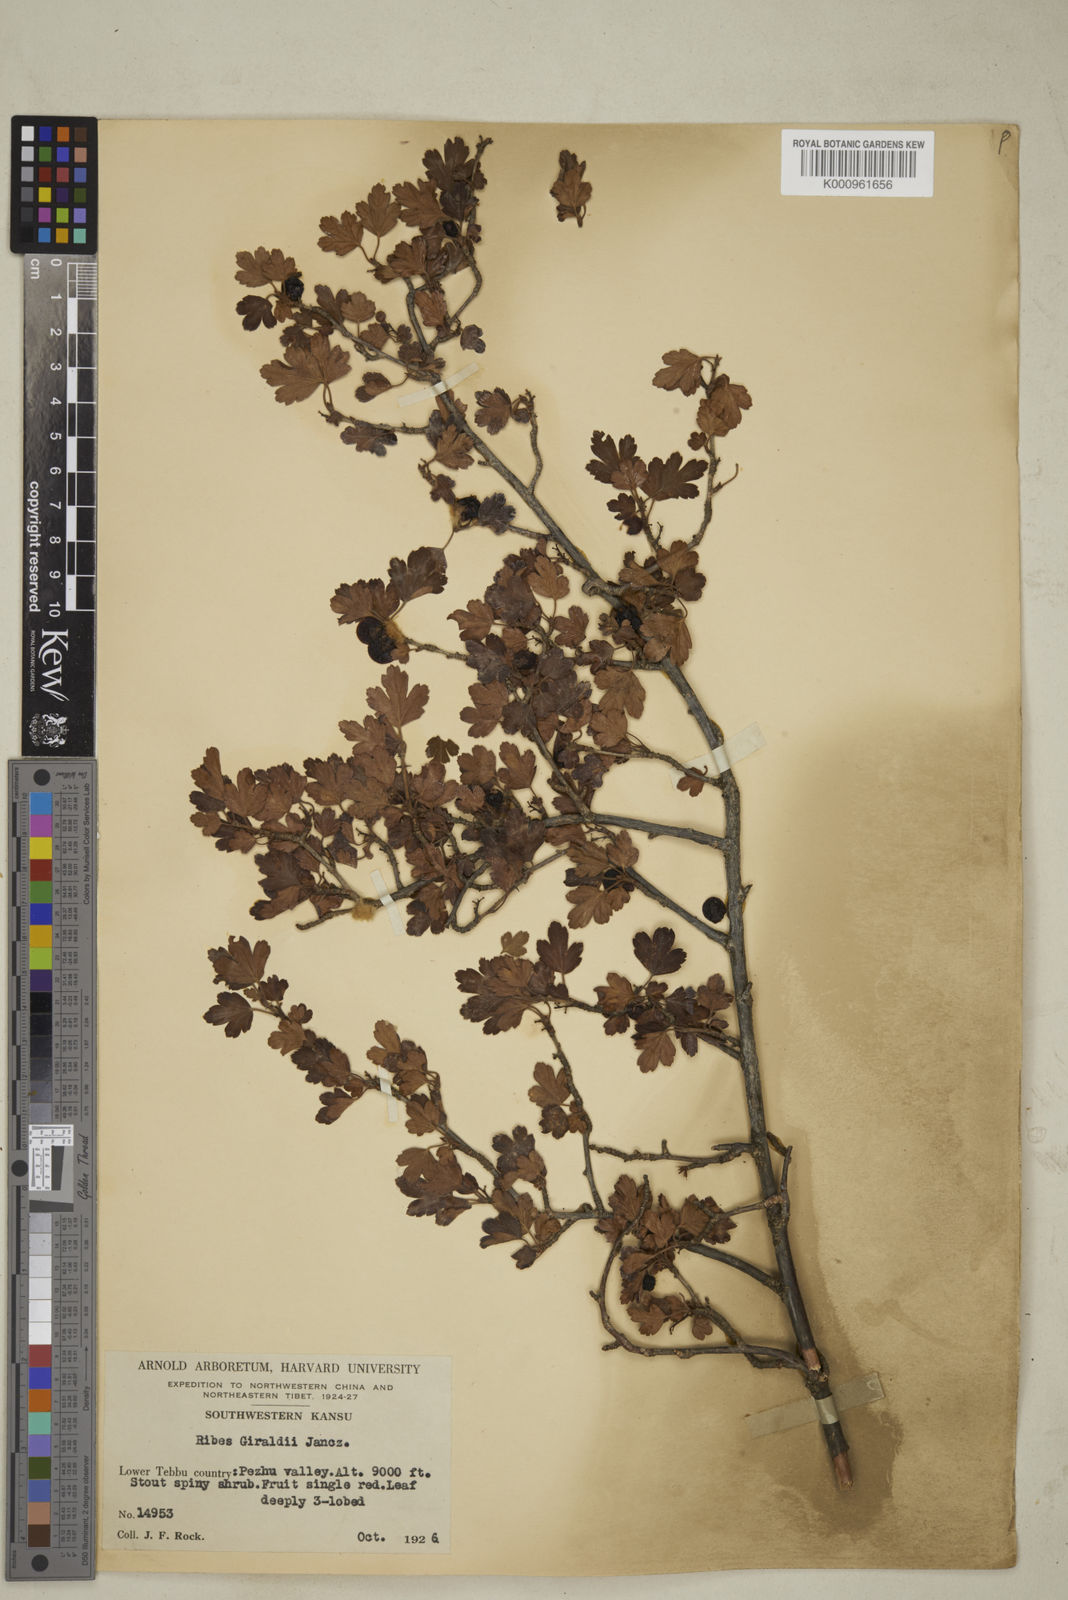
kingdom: Plantae
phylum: Tracheophyta
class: Magnoliopsida
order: Saxifragales
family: Grossulariaceae
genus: Ribes
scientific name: Ribes giraldii
